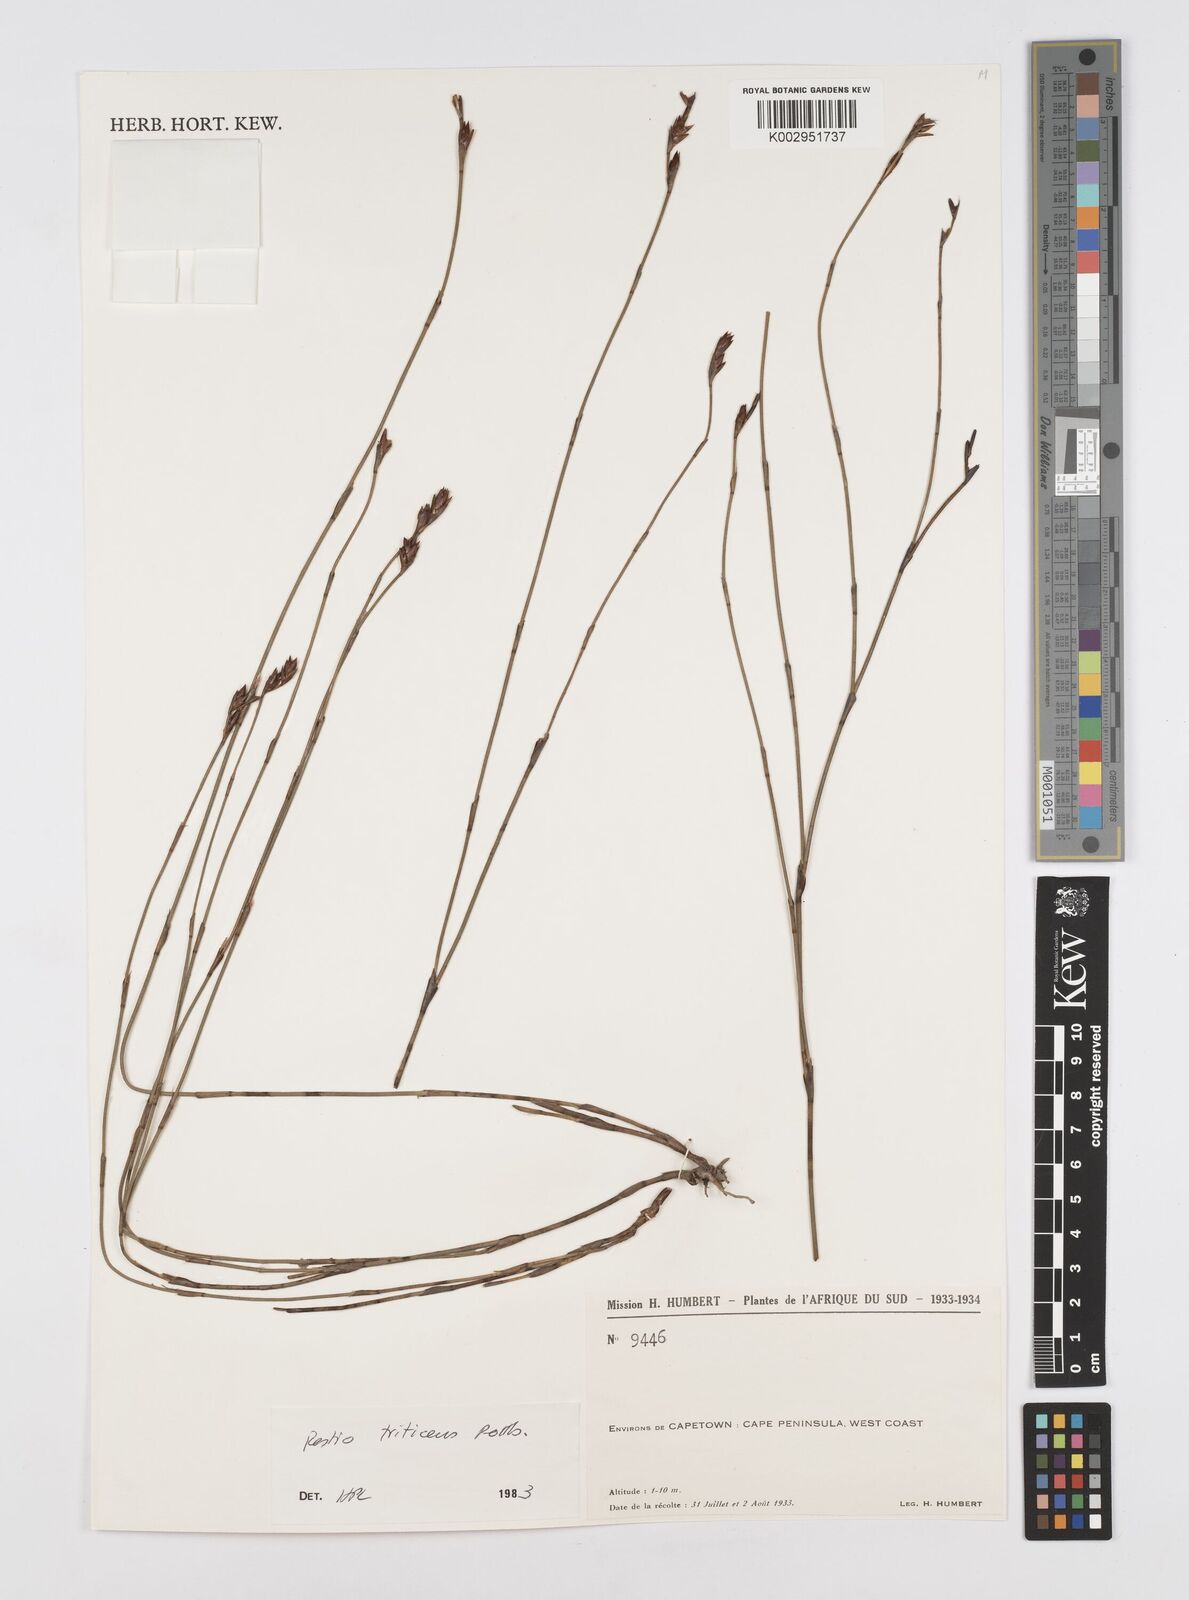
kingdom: Plantae
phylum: Tracheophyta
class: Liliopsida
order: Poales
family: Restionaceae
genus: Restio
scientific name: Restio triticeus
